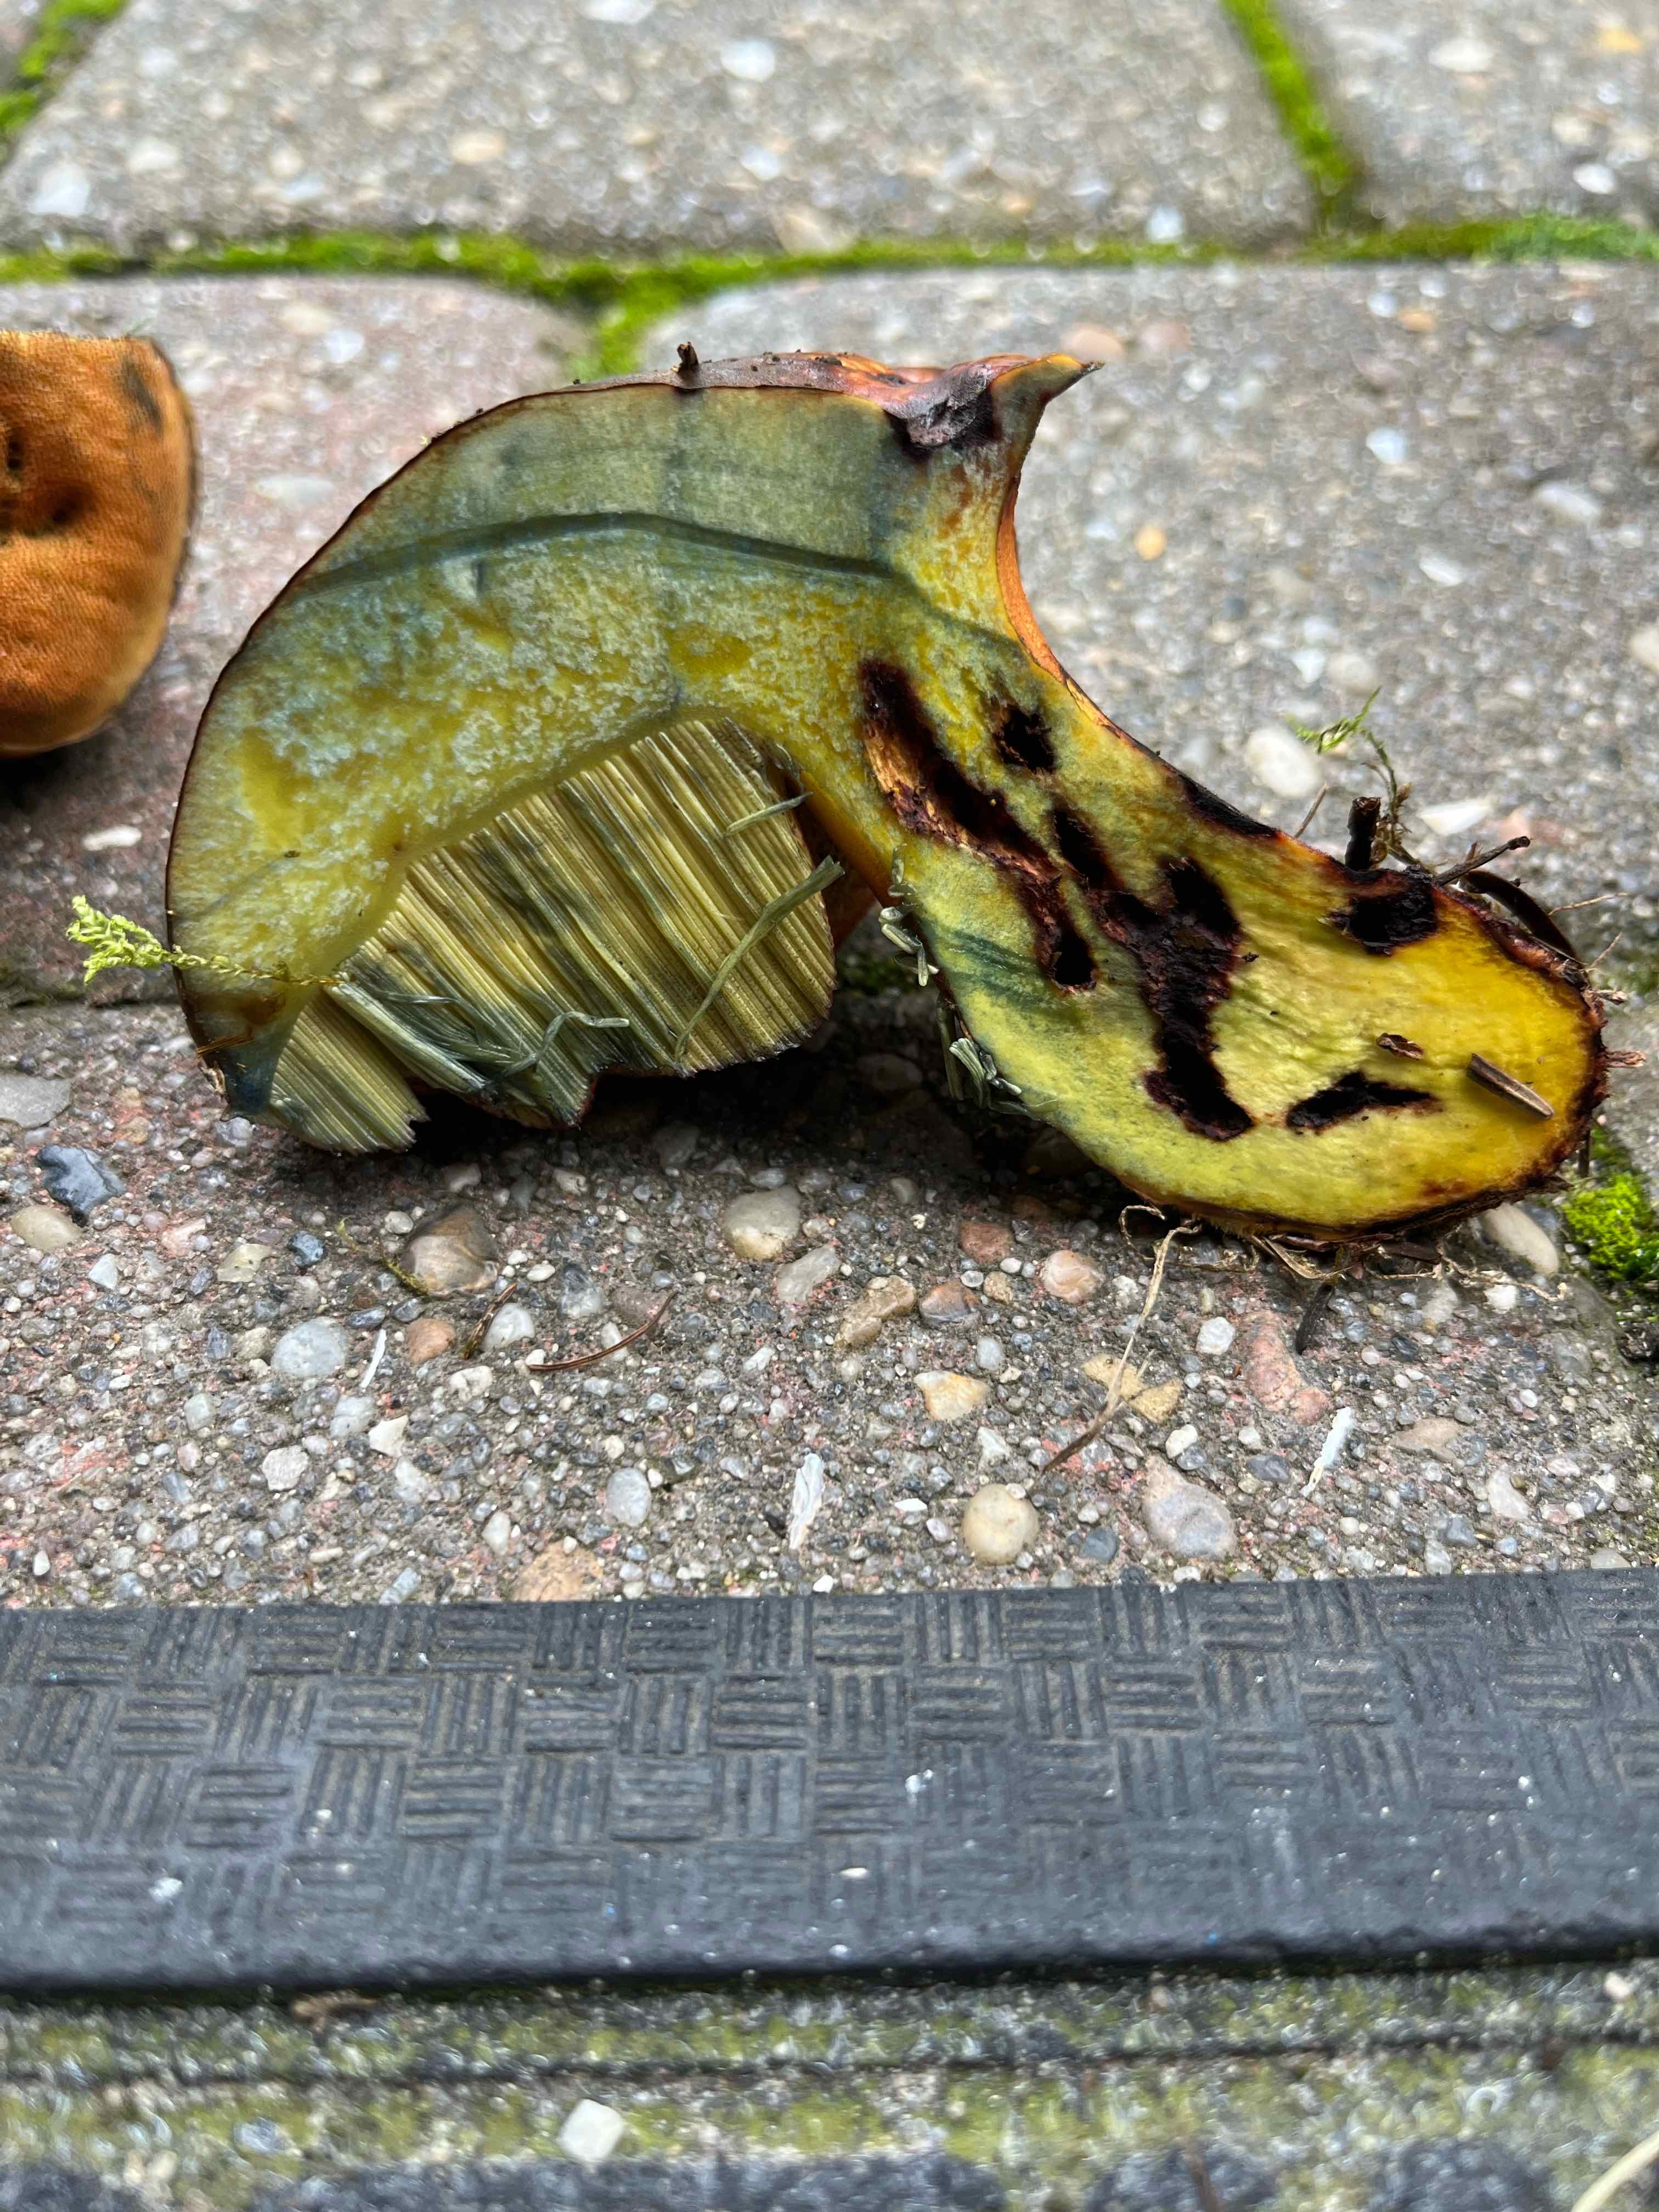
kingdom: Fungi
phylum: Basidiomycota
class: Agaricomycetes
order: Boletales
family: Boletaceae
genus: Neoboletus
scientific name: Neoboletus erythropus
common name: punktstokket indigorørhat
